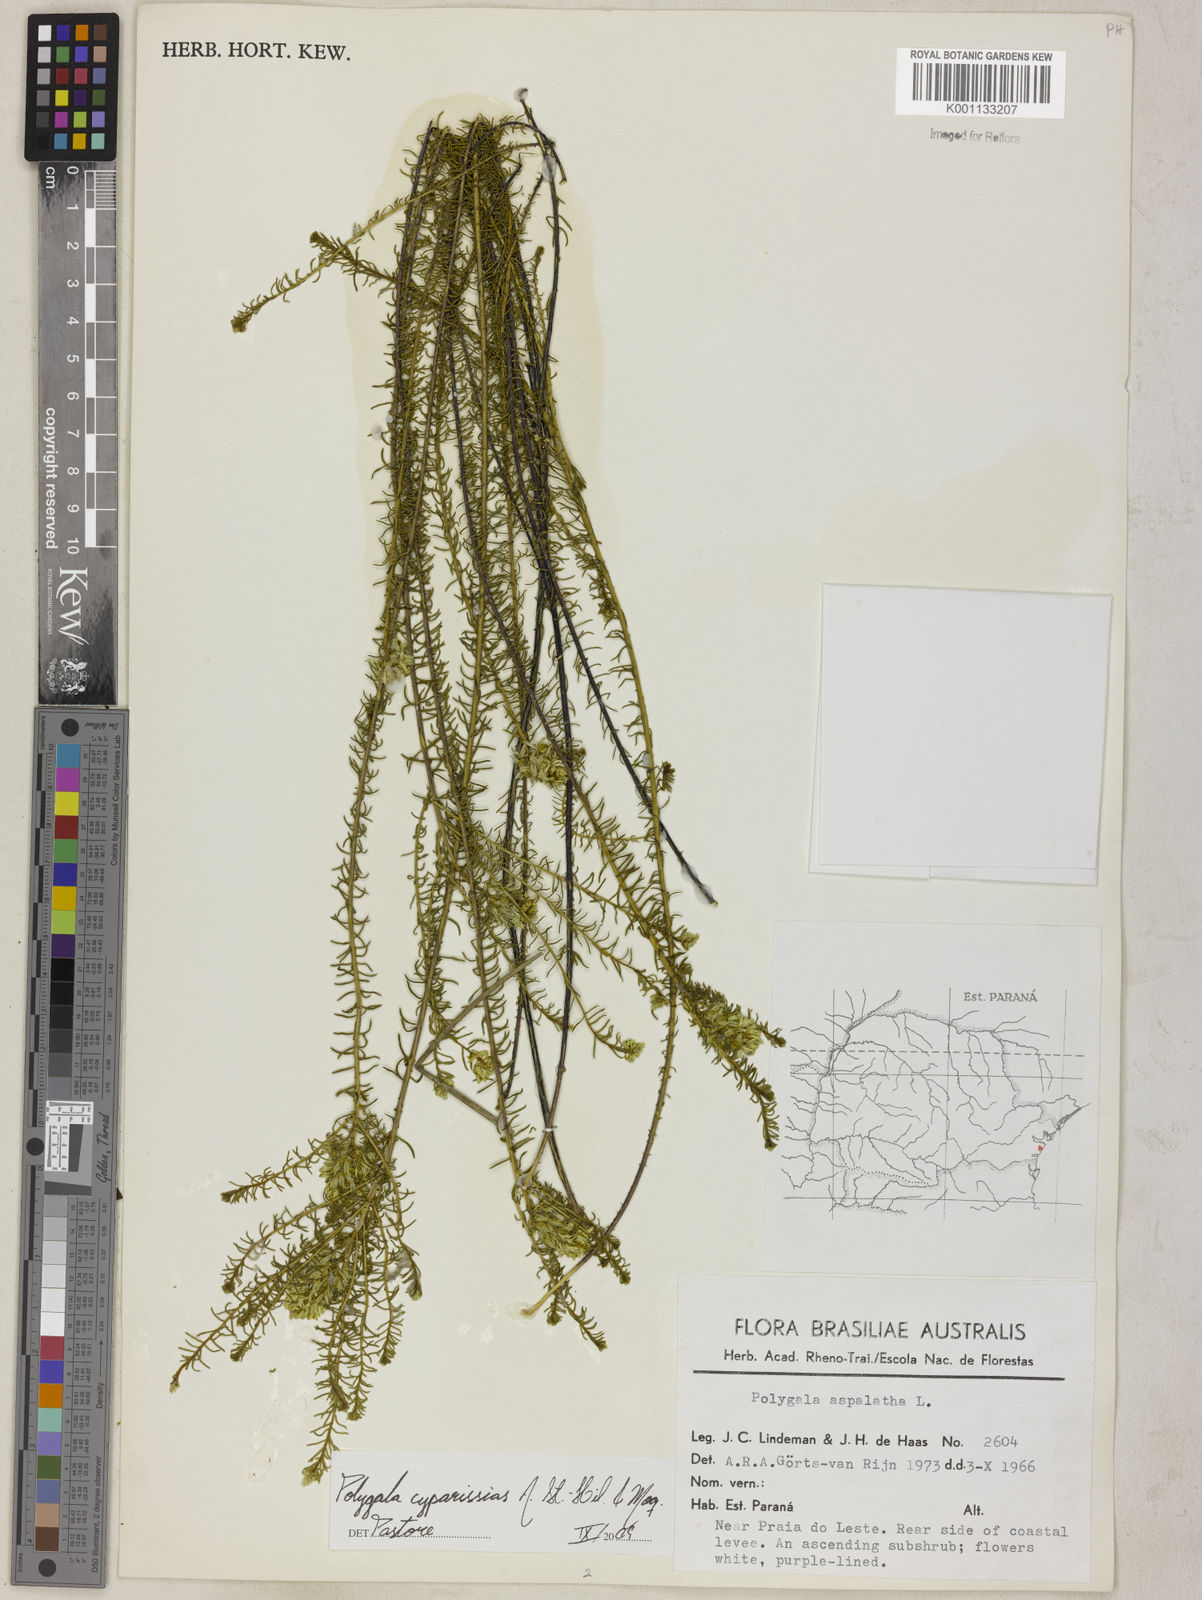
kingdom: Plantae
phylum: Tracheophyta
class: Magnoliopsida
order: Fabales
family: Polygalaceae
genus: Polygala
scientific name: Polygala cyparissias
